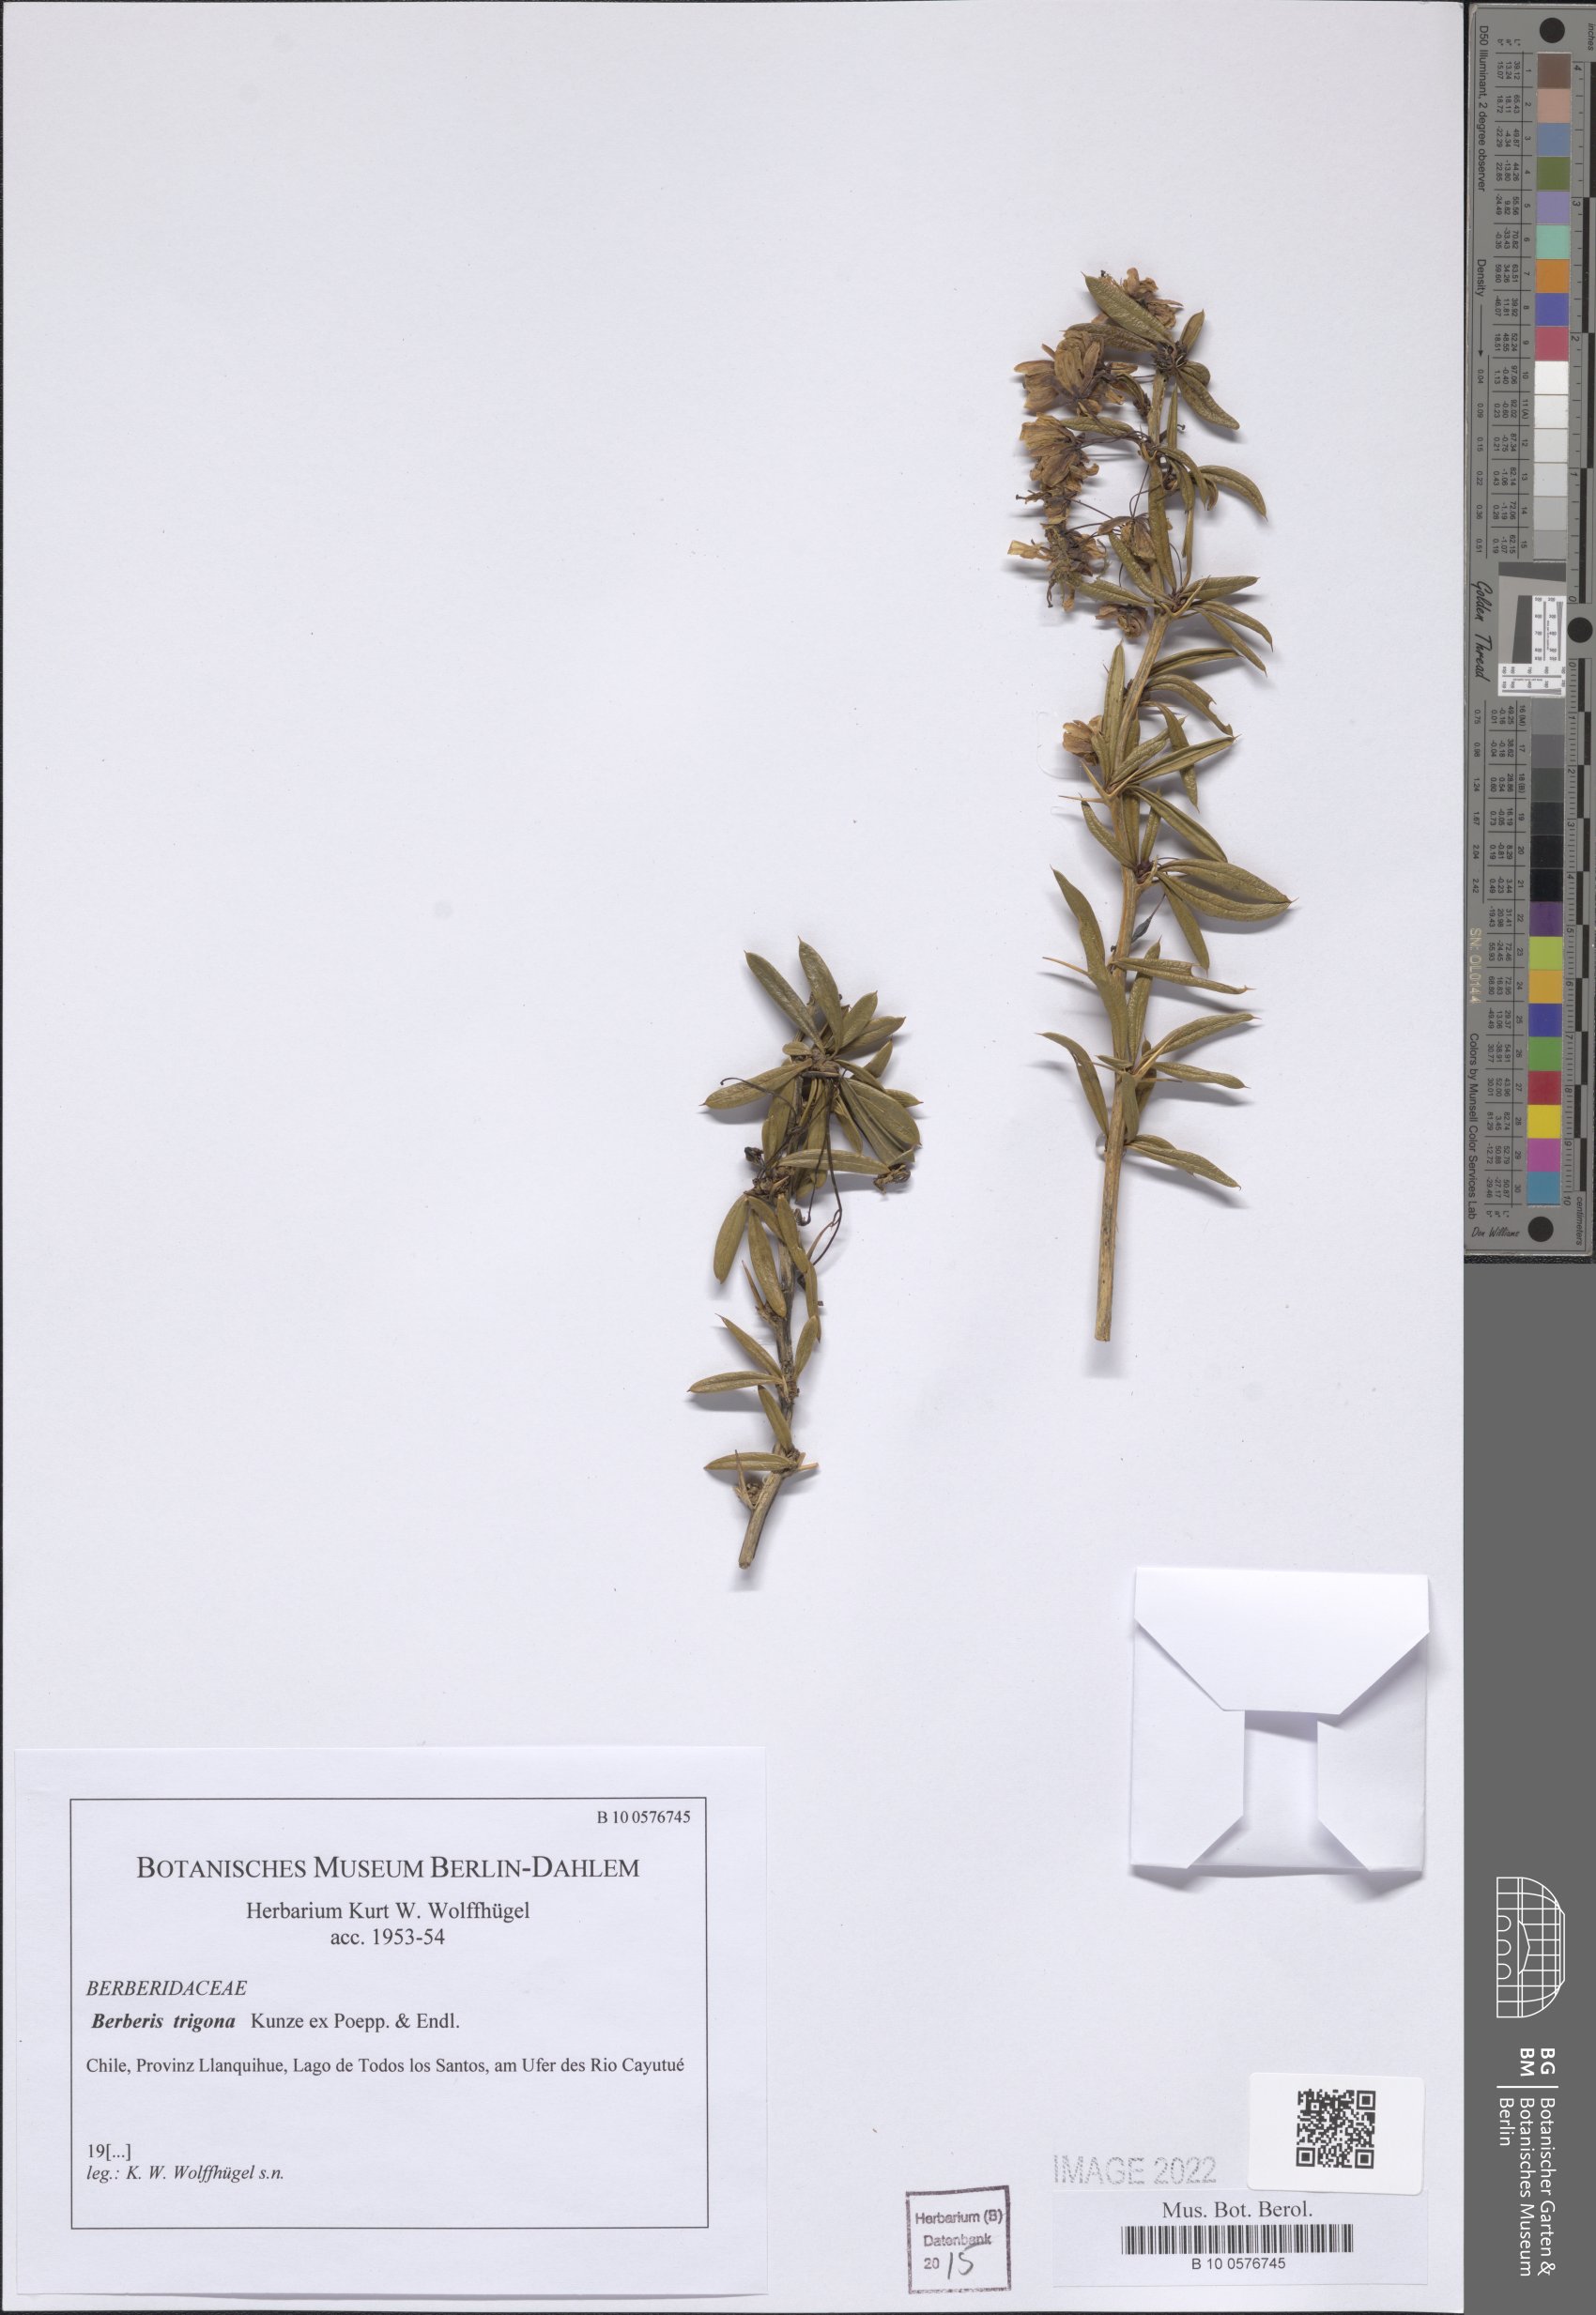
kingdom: Plantae
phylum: Tracheophyta
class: Magnoliopsida
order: Ranunculales
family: Berberidaceae
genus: Berberis
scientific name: Berberis trigona
